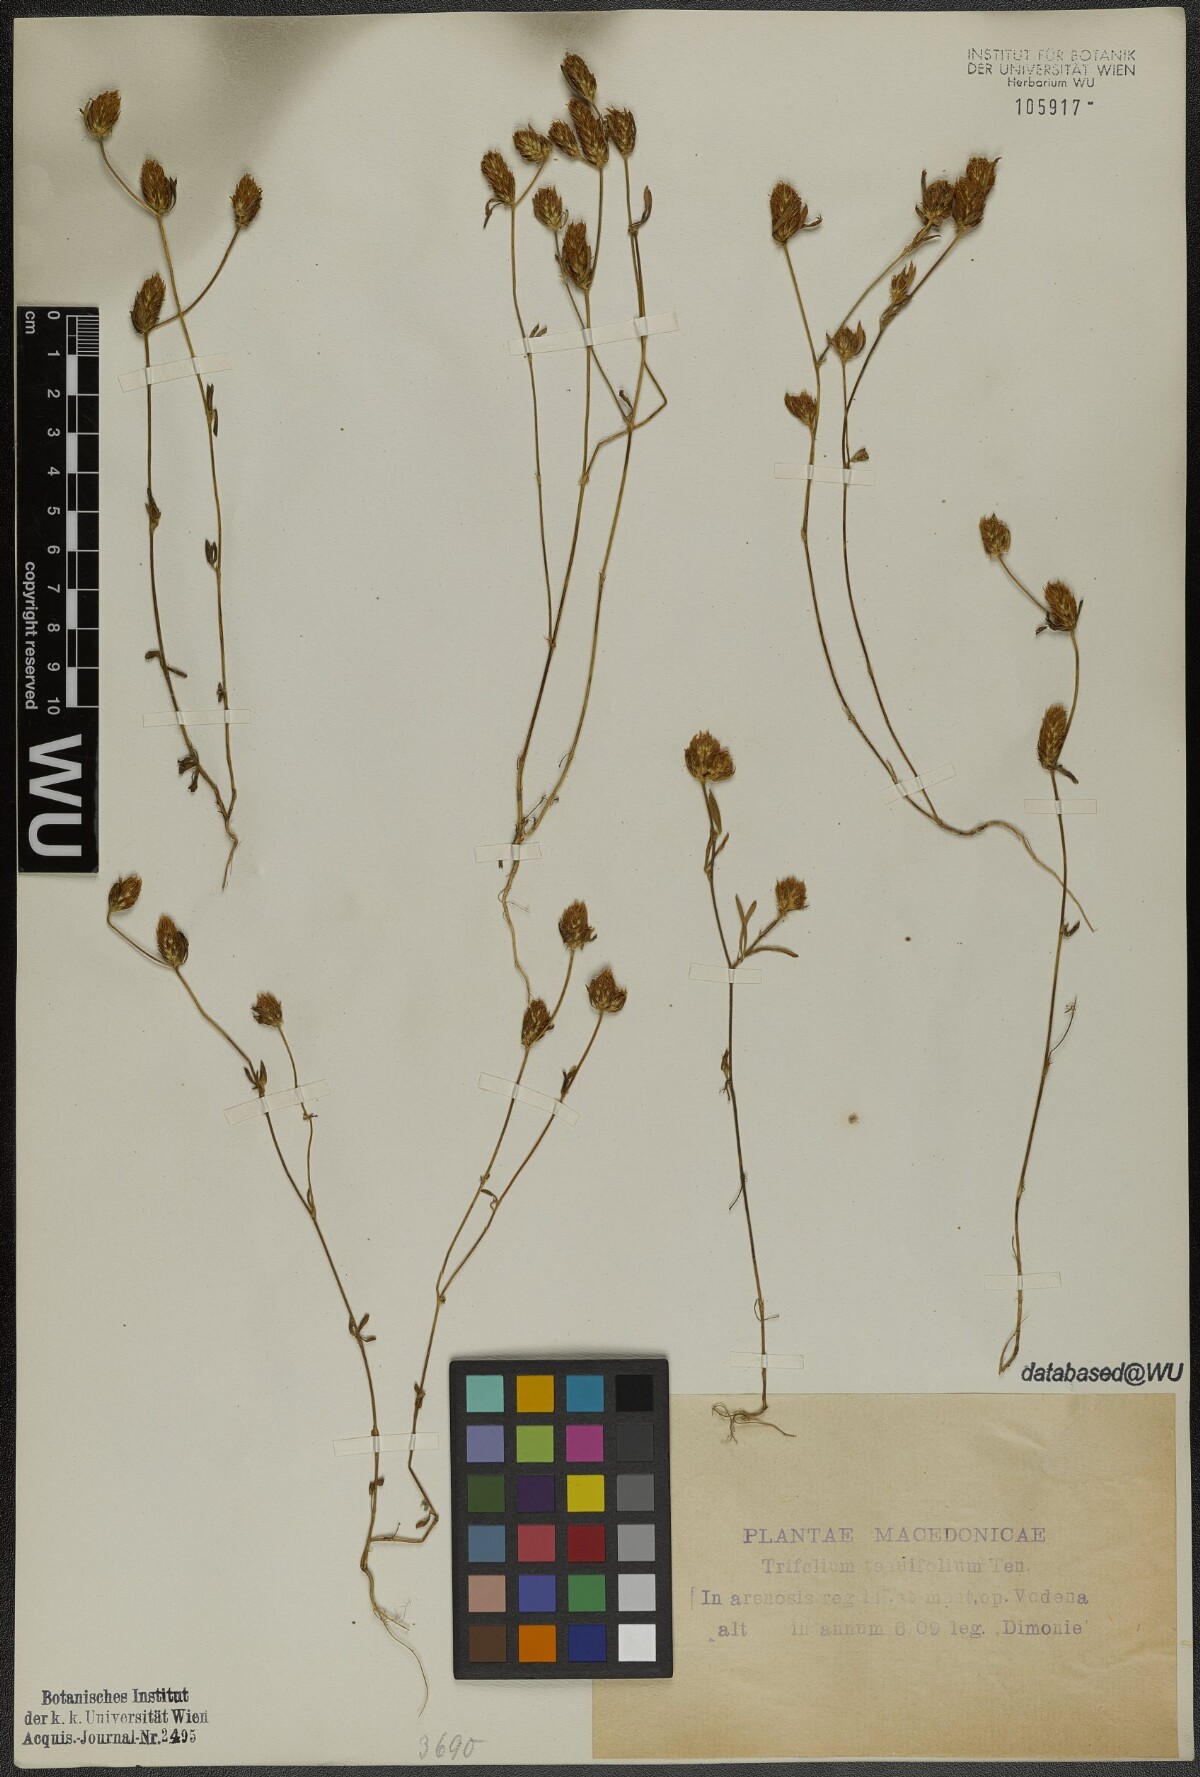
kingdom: Plantae
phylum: Tracheophyta
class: Magnoliopsida
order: Fabales
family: Fabaceae
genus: Trifolium
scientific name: Trifolium tenuifolium
